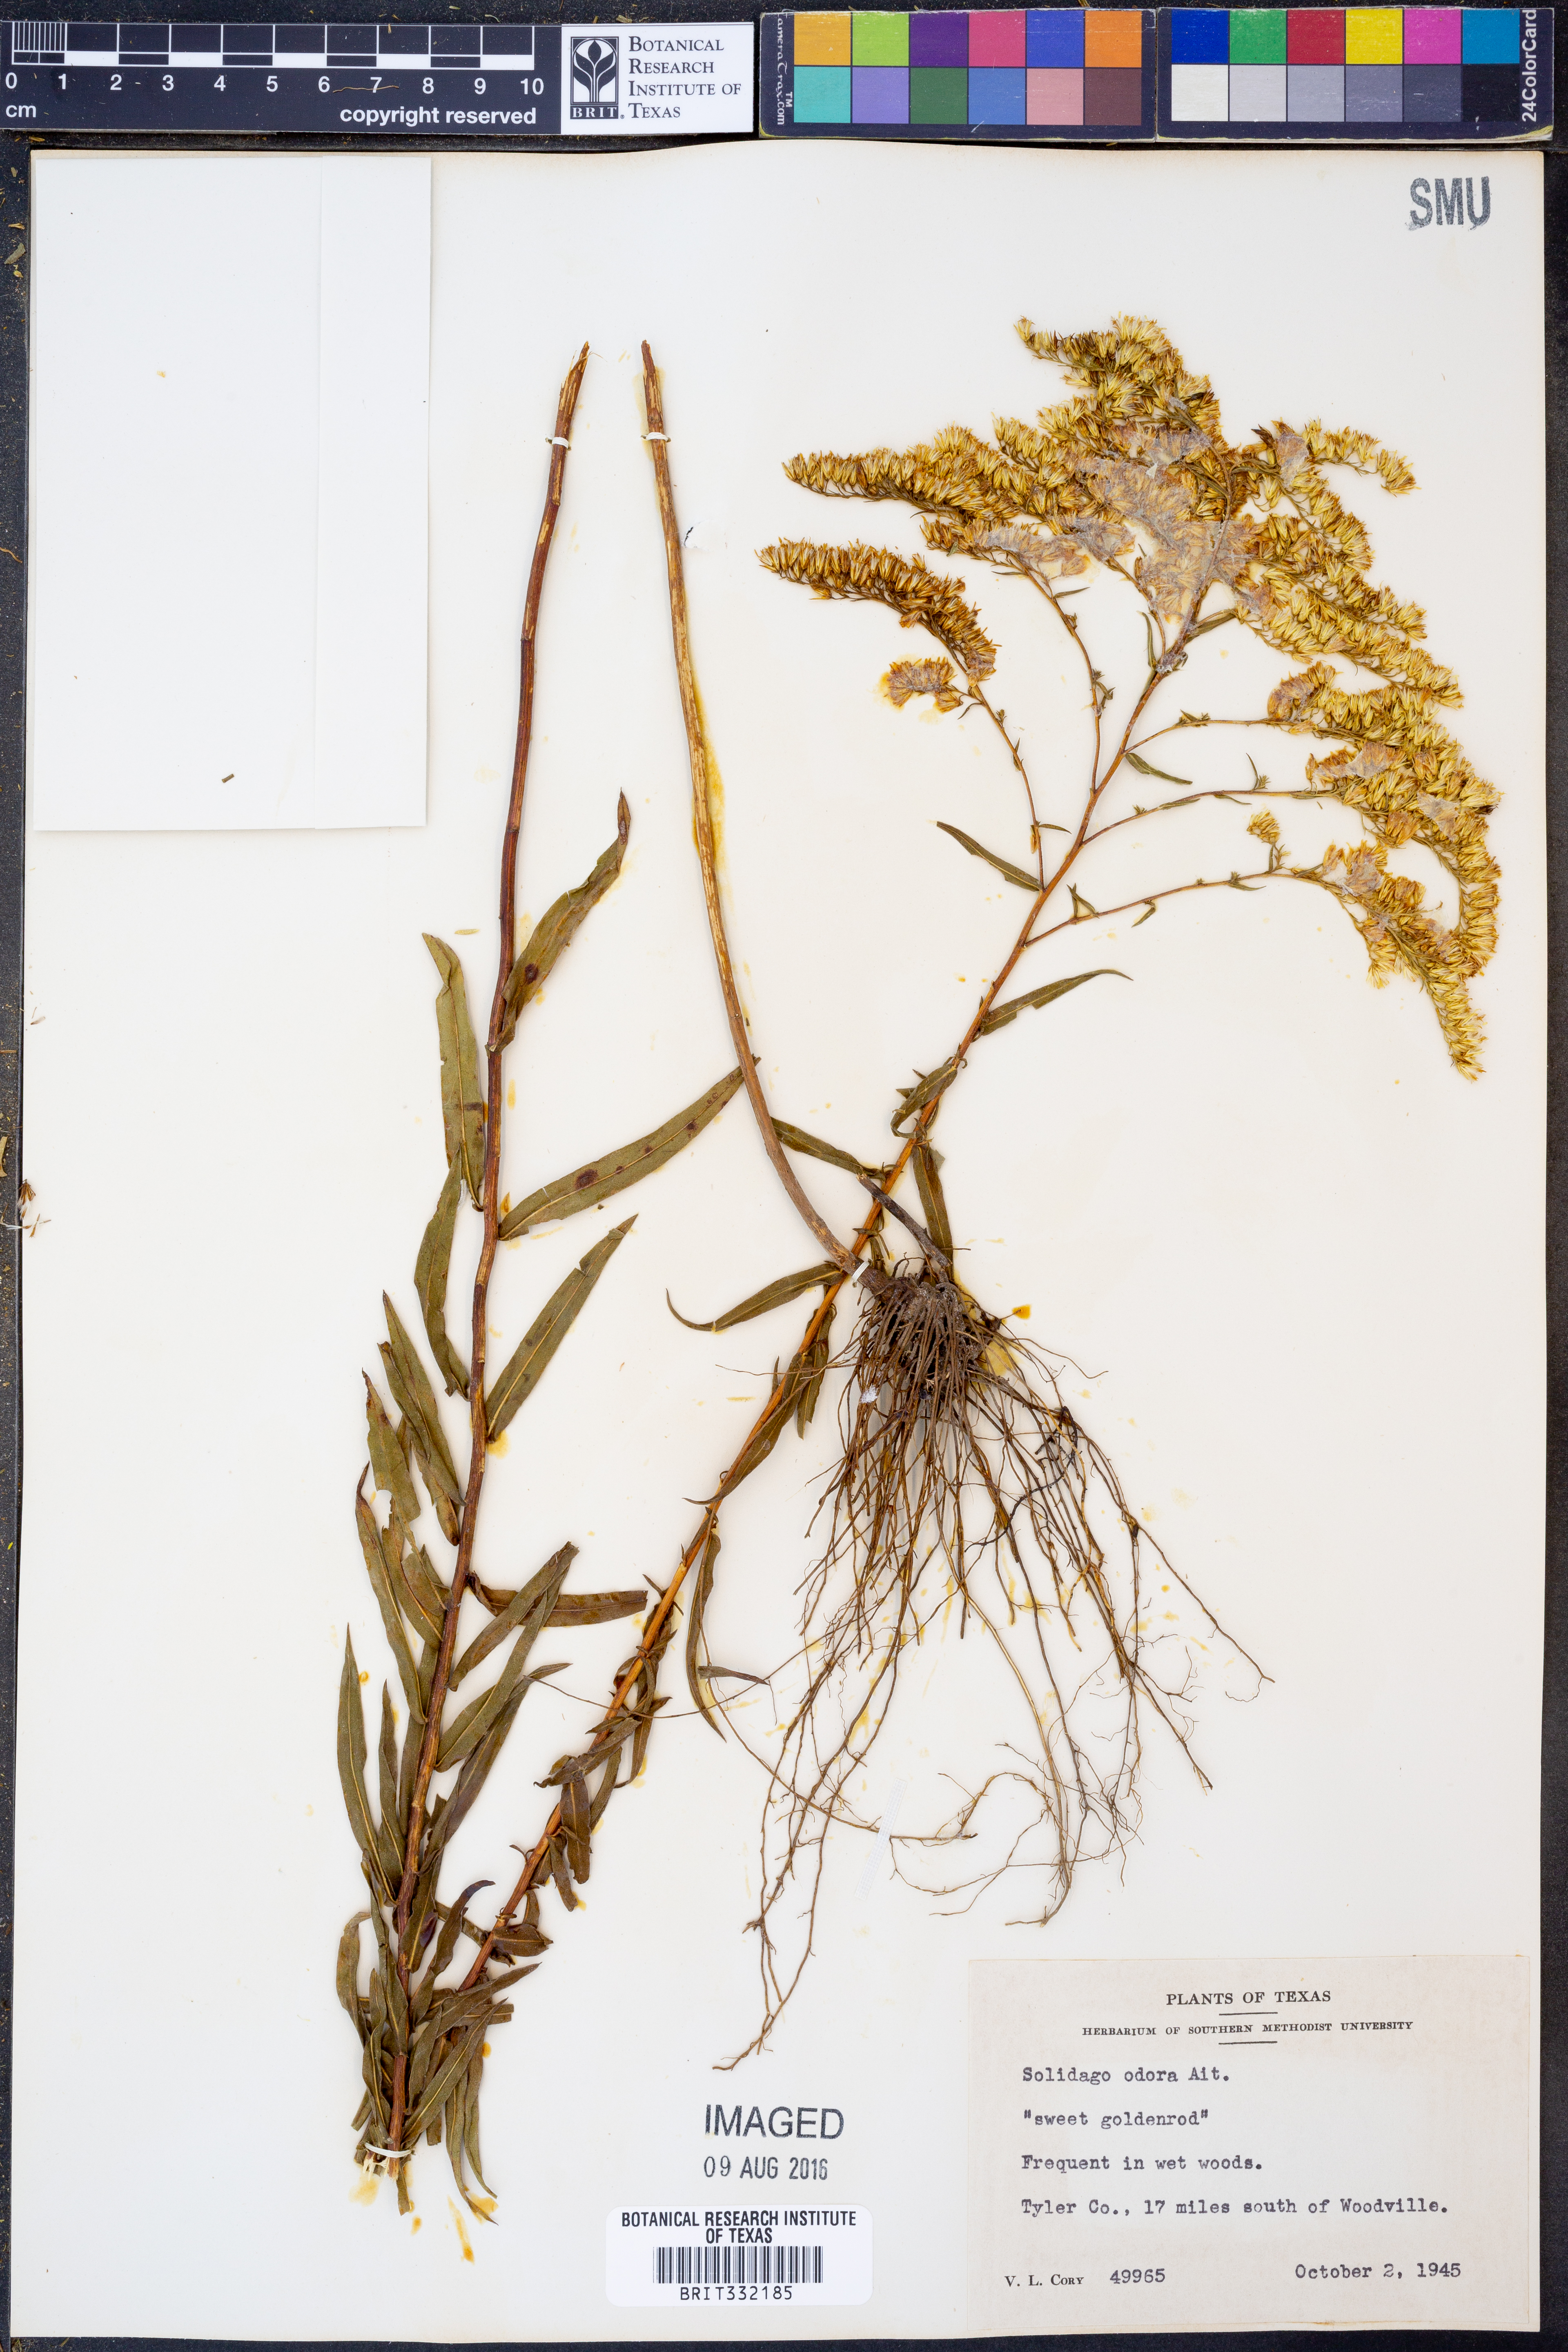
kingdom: Plantae
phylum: Tracheophyta
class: Magnoliopsida
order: Asterales
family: Asteraceae
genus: Solidago
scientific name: Solidago odora
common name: Anise-scented goldenrod
